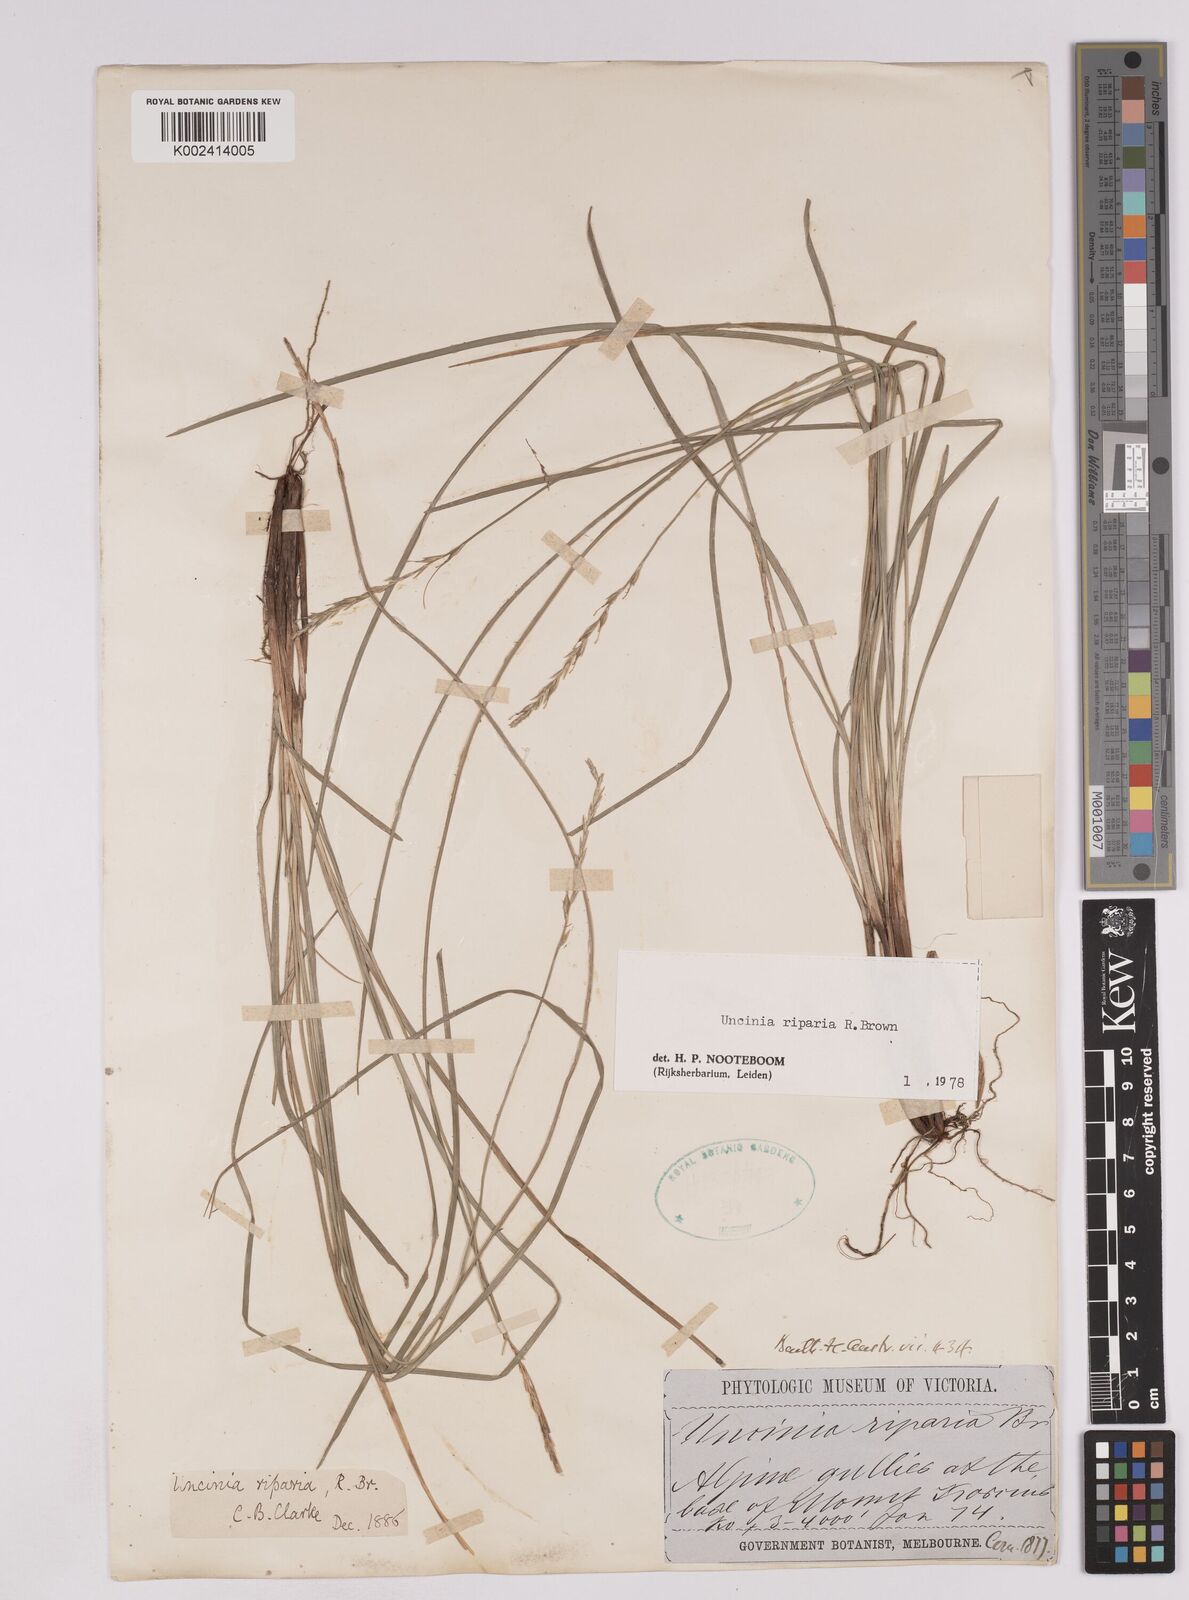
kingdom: Plantae
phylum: Tracheophyta
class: Liliopsida
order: Poales
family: Cyperaceae
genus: Carex
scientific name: Carex umbricola
